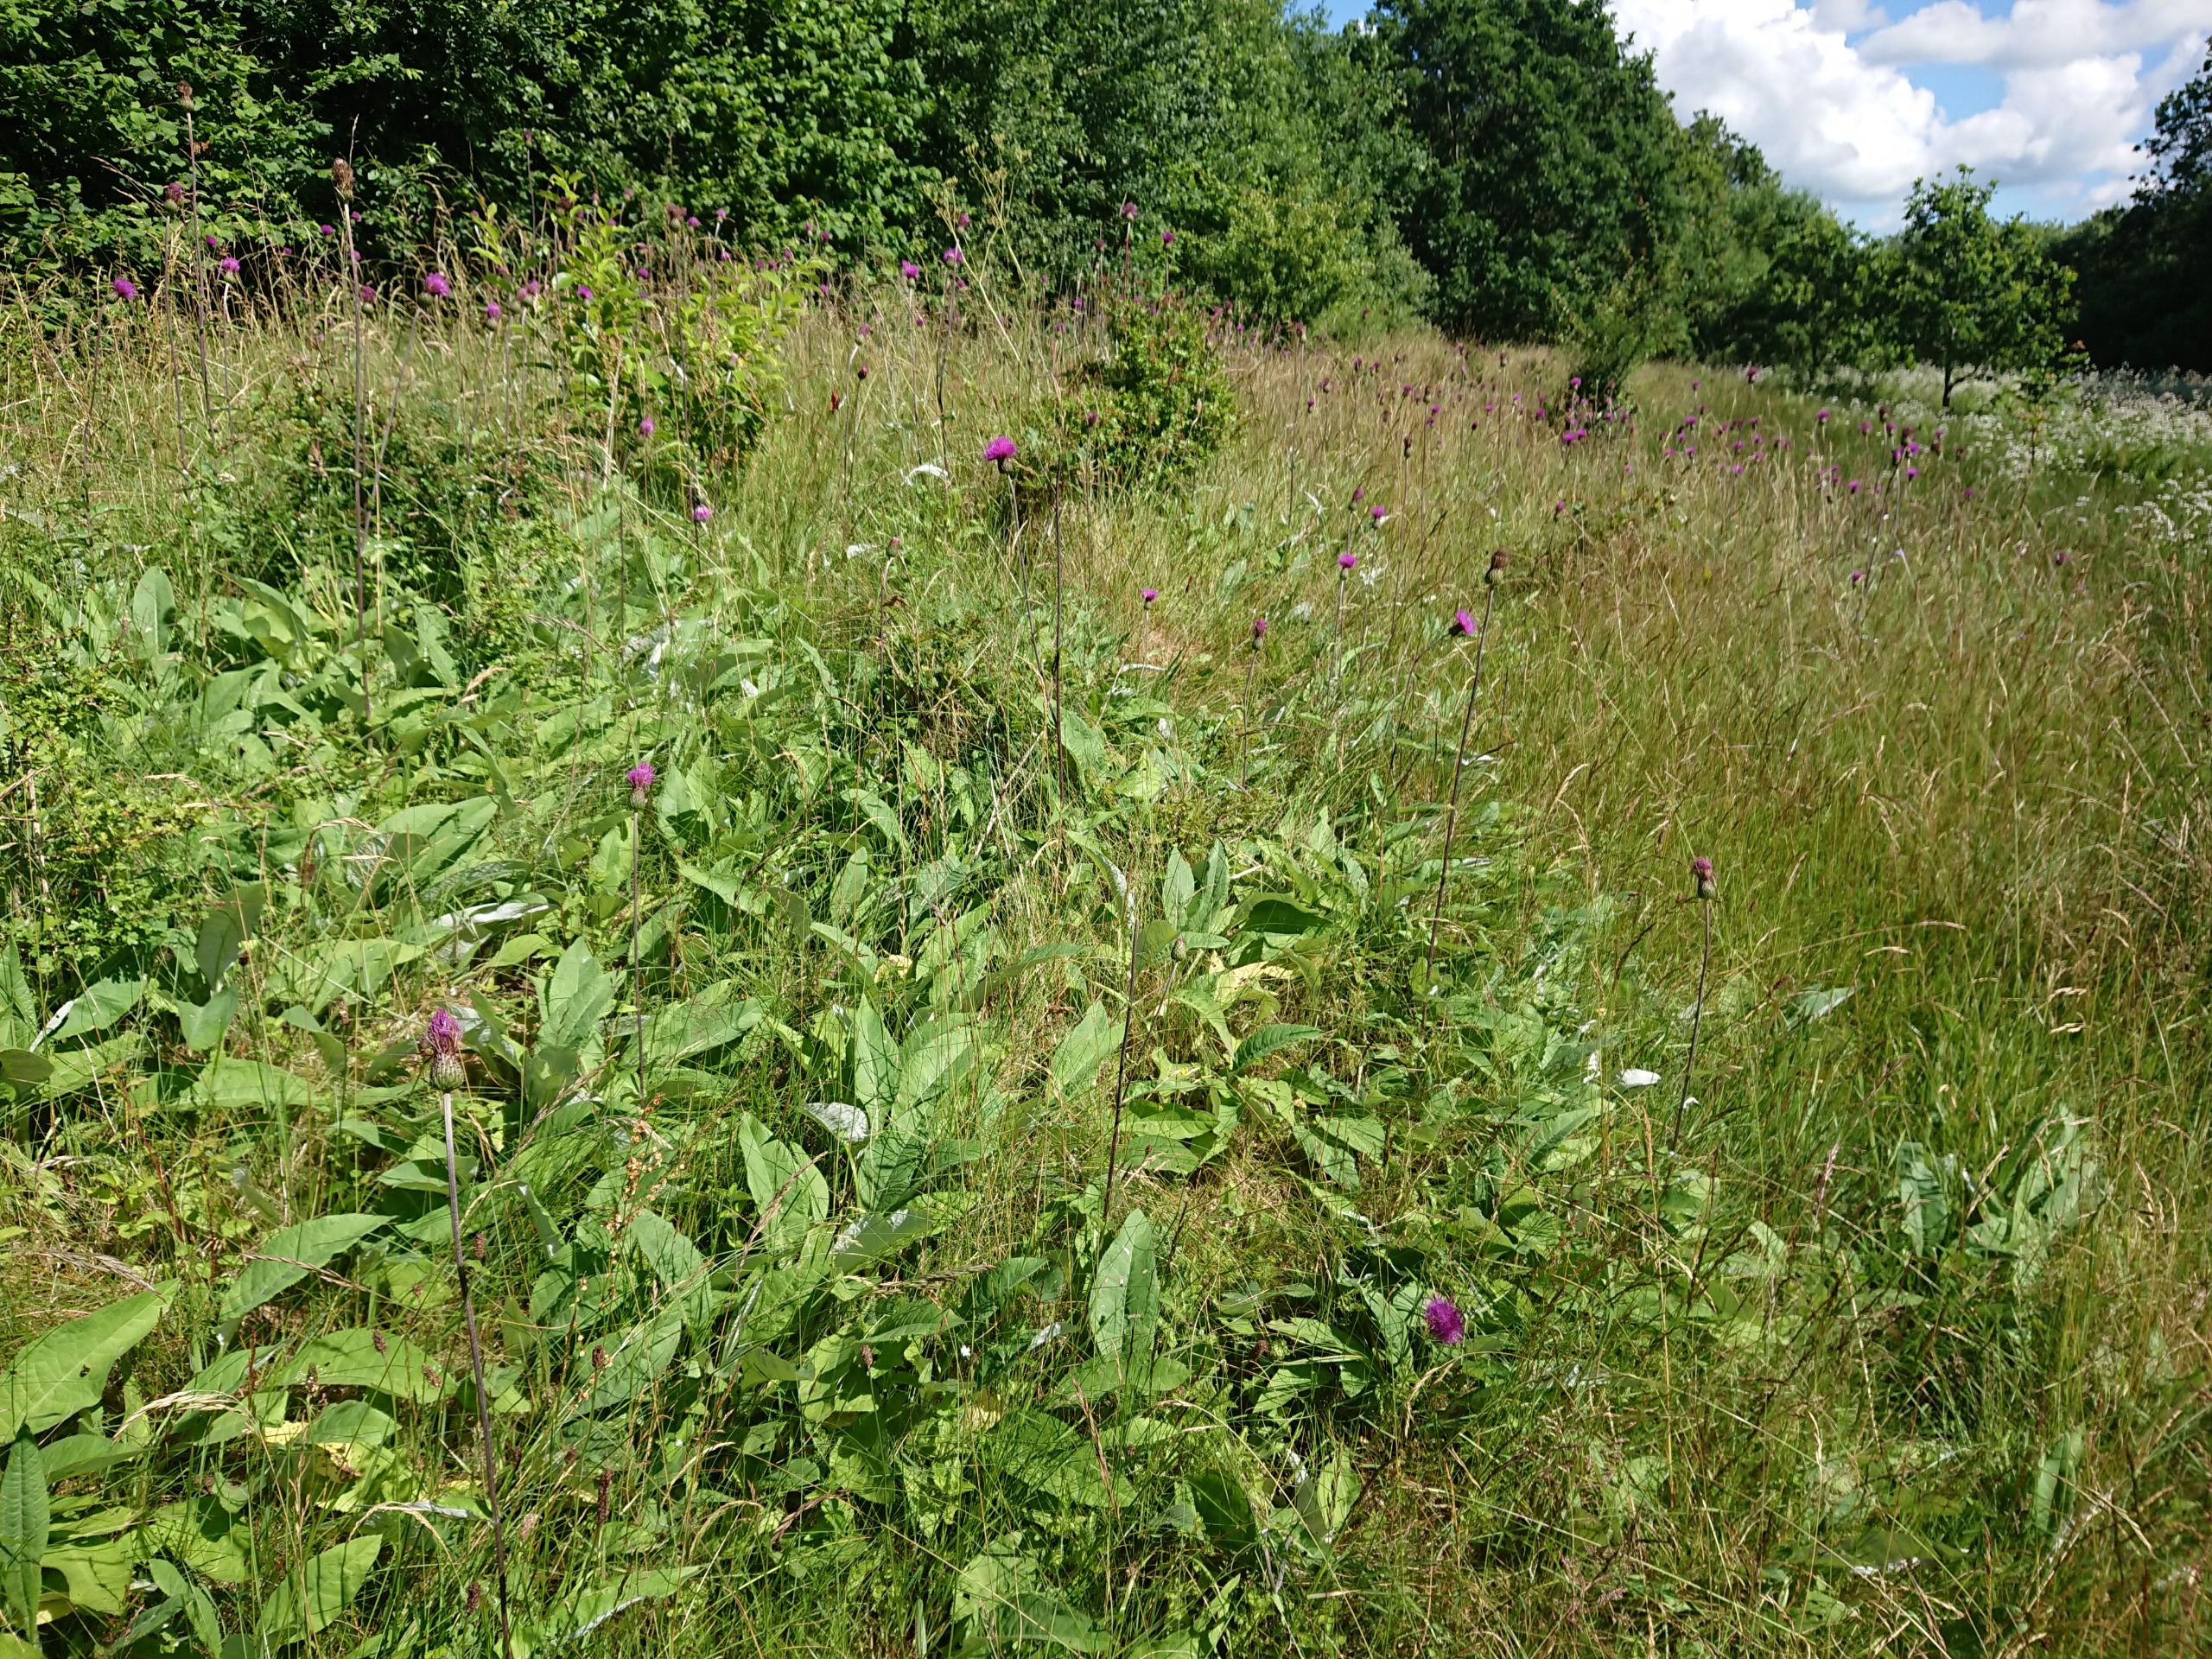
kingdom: Plantae
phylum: Tracheophyta
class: Magnoliopsida
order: Asterales
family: Asteraceae
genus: Cirsium
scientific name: Cirsium heterophyllum
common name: Forskelligbladet tidsel
